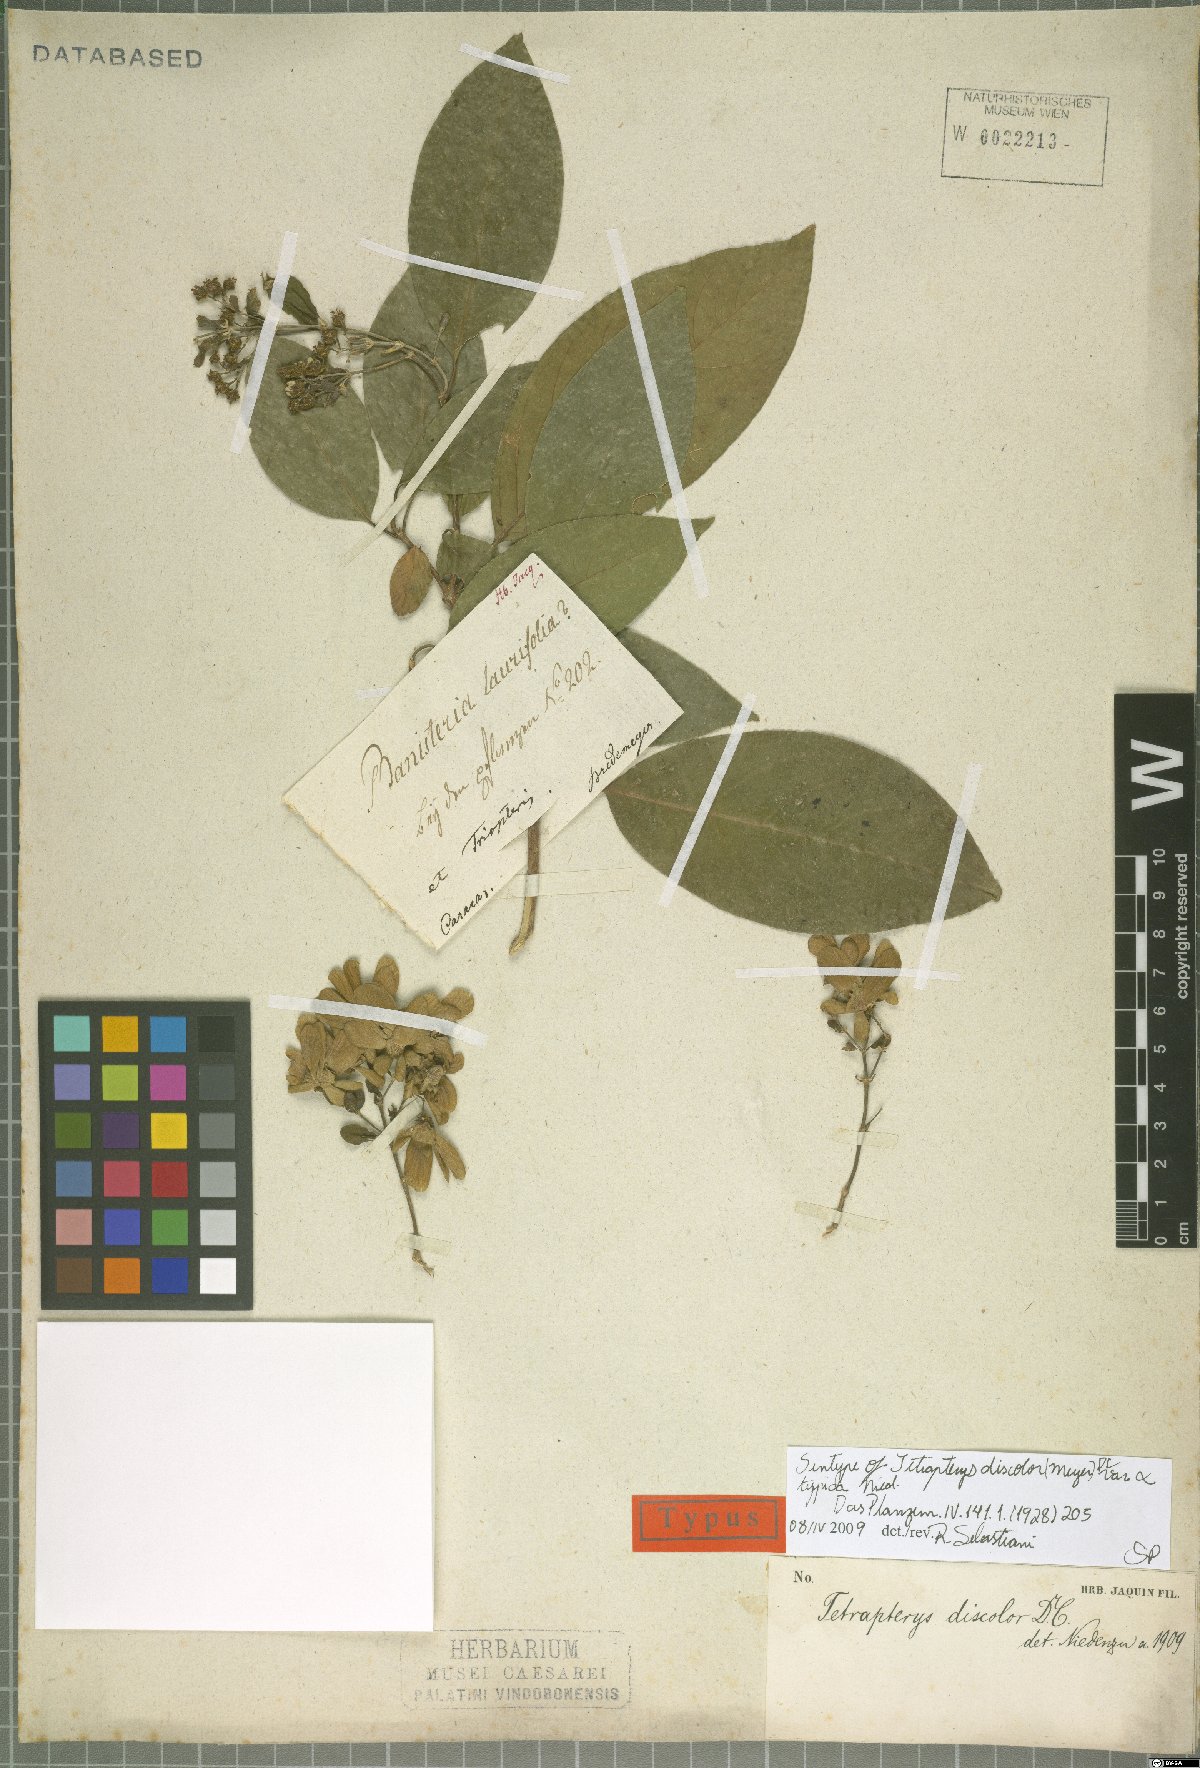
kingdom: Plantae
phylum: Tracheophyta
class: Magnoliopsida
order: Malpighiales
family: Malpighiaceae
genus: Tetrapterys
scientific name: Tetrapterys discolor
